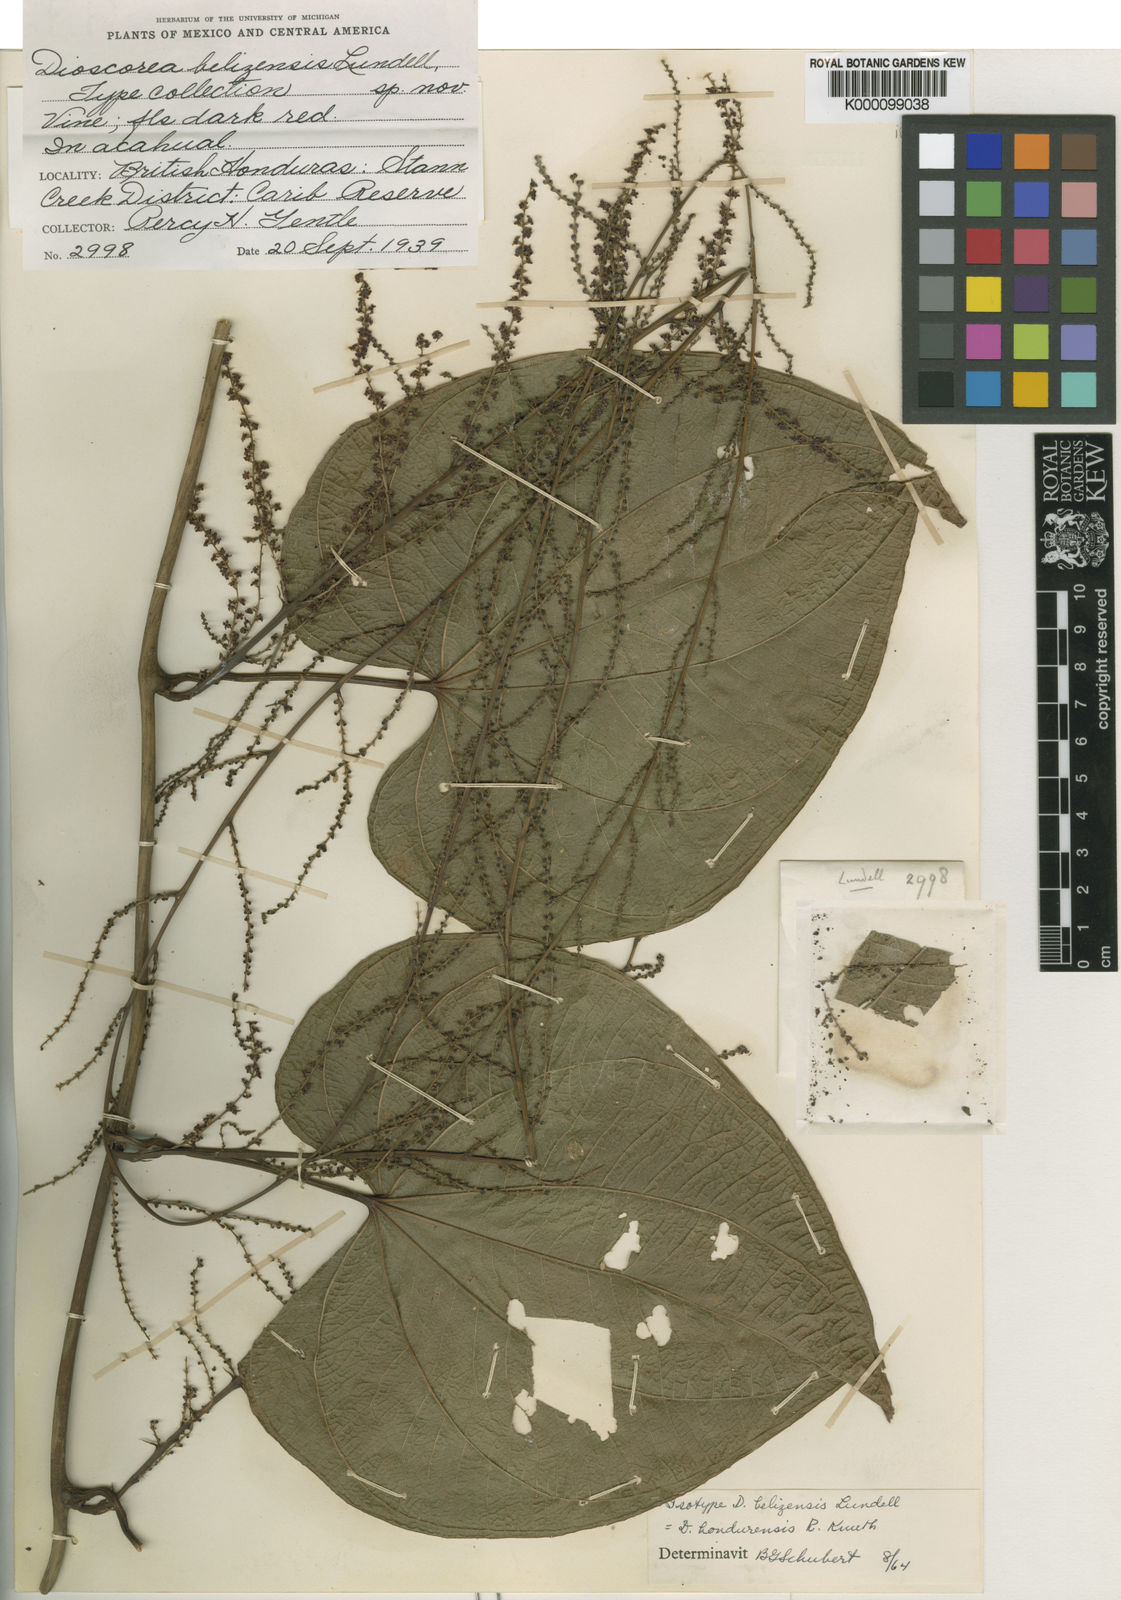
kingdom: Plantae
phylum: Tracheophyta
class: Liliopsida
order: Dioscoreales
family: Dioscoreaceae
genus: Dioscorea
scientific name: Dioscorea hondurensis
